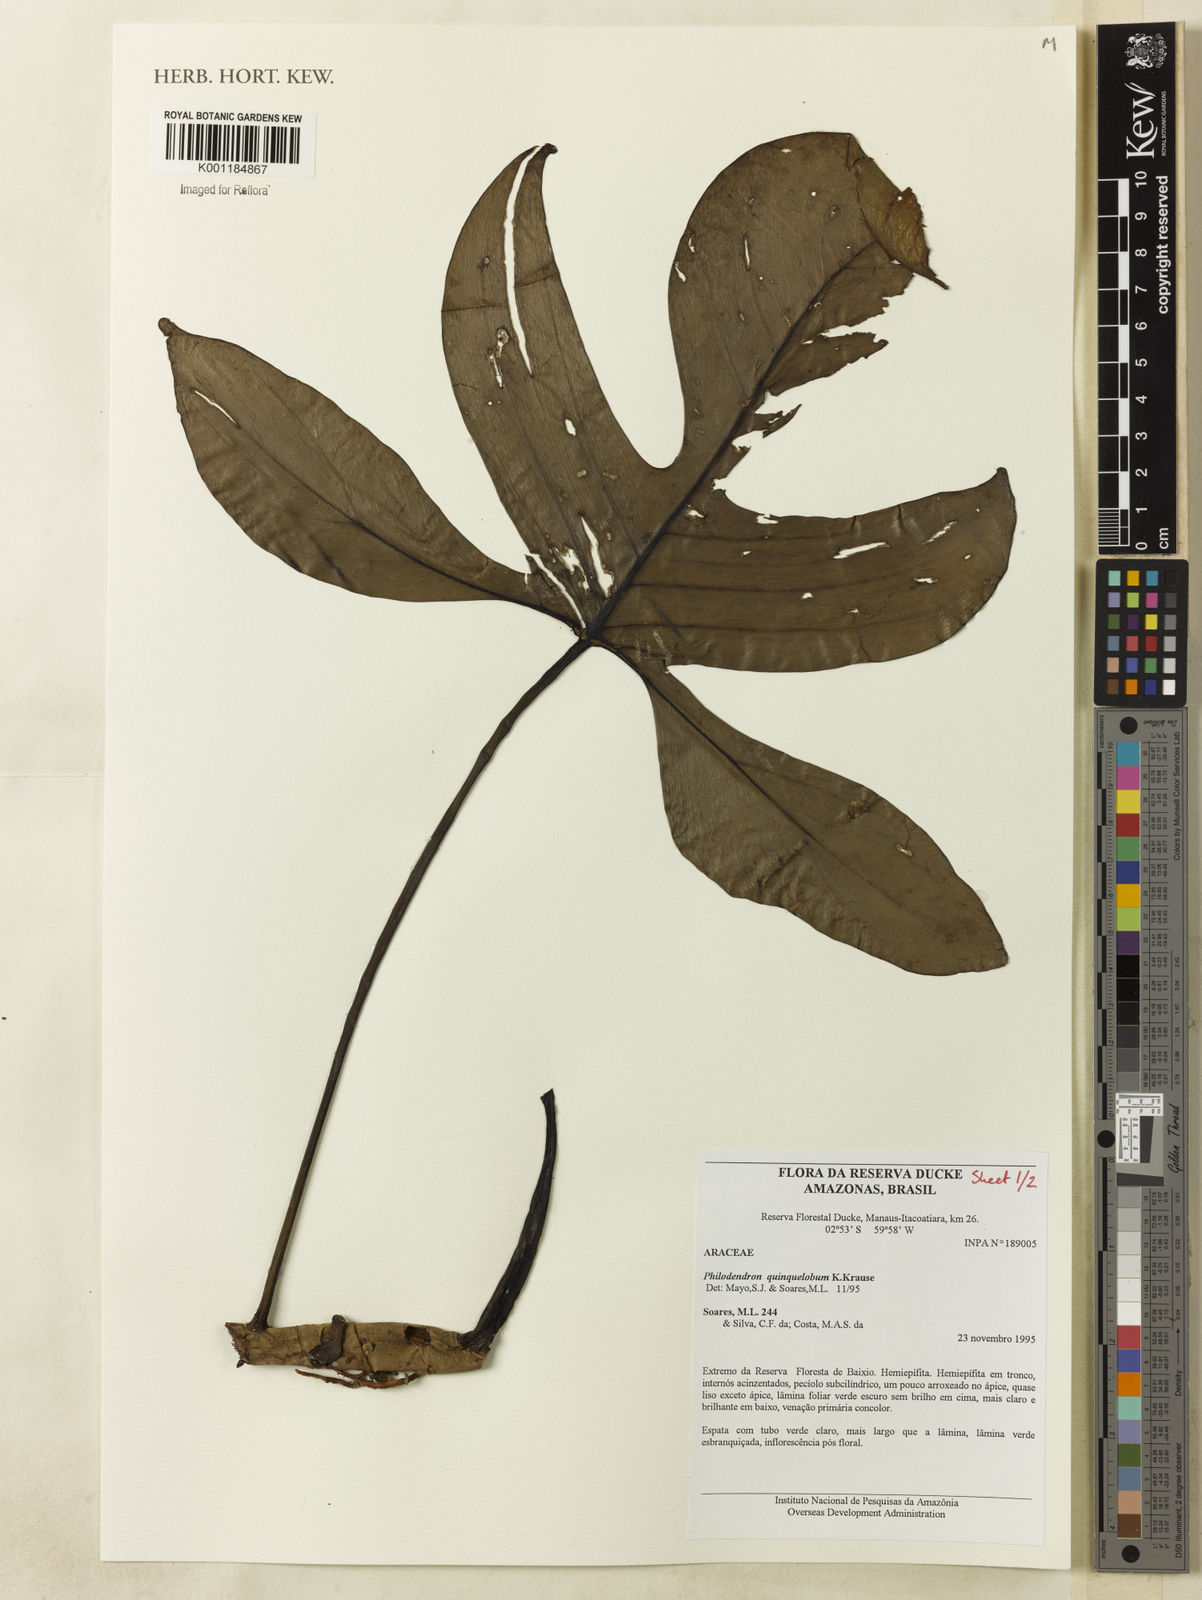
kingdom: Plantae
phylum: Tracheophyta
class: Liliopsida
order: Alismatales
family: Araceae
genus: Philodendron
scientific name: Philodendron quinquelobum
